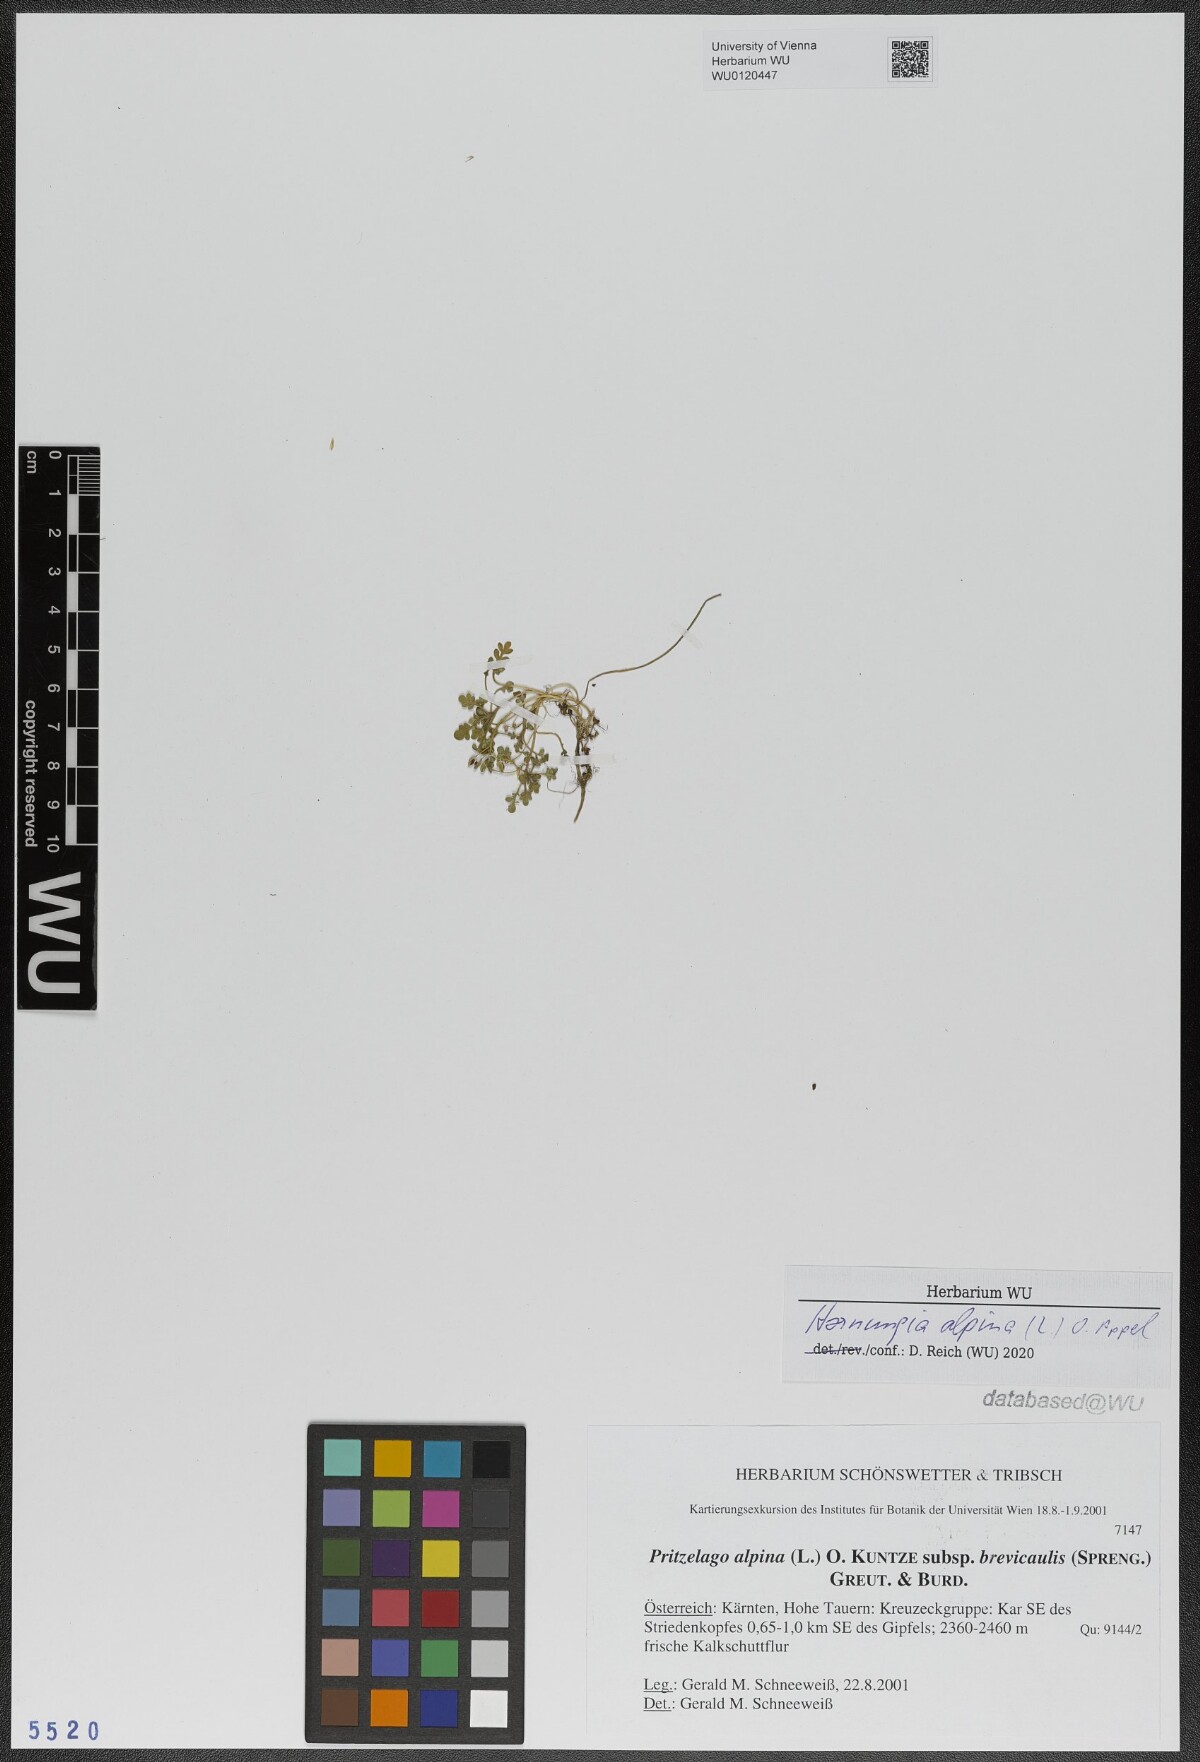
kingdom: Plantae
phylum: Tracheophyta
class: Magnoliopsida
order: Brassicales
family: Brassicaceae
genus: Hornungia
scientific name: Hornungia alpina
